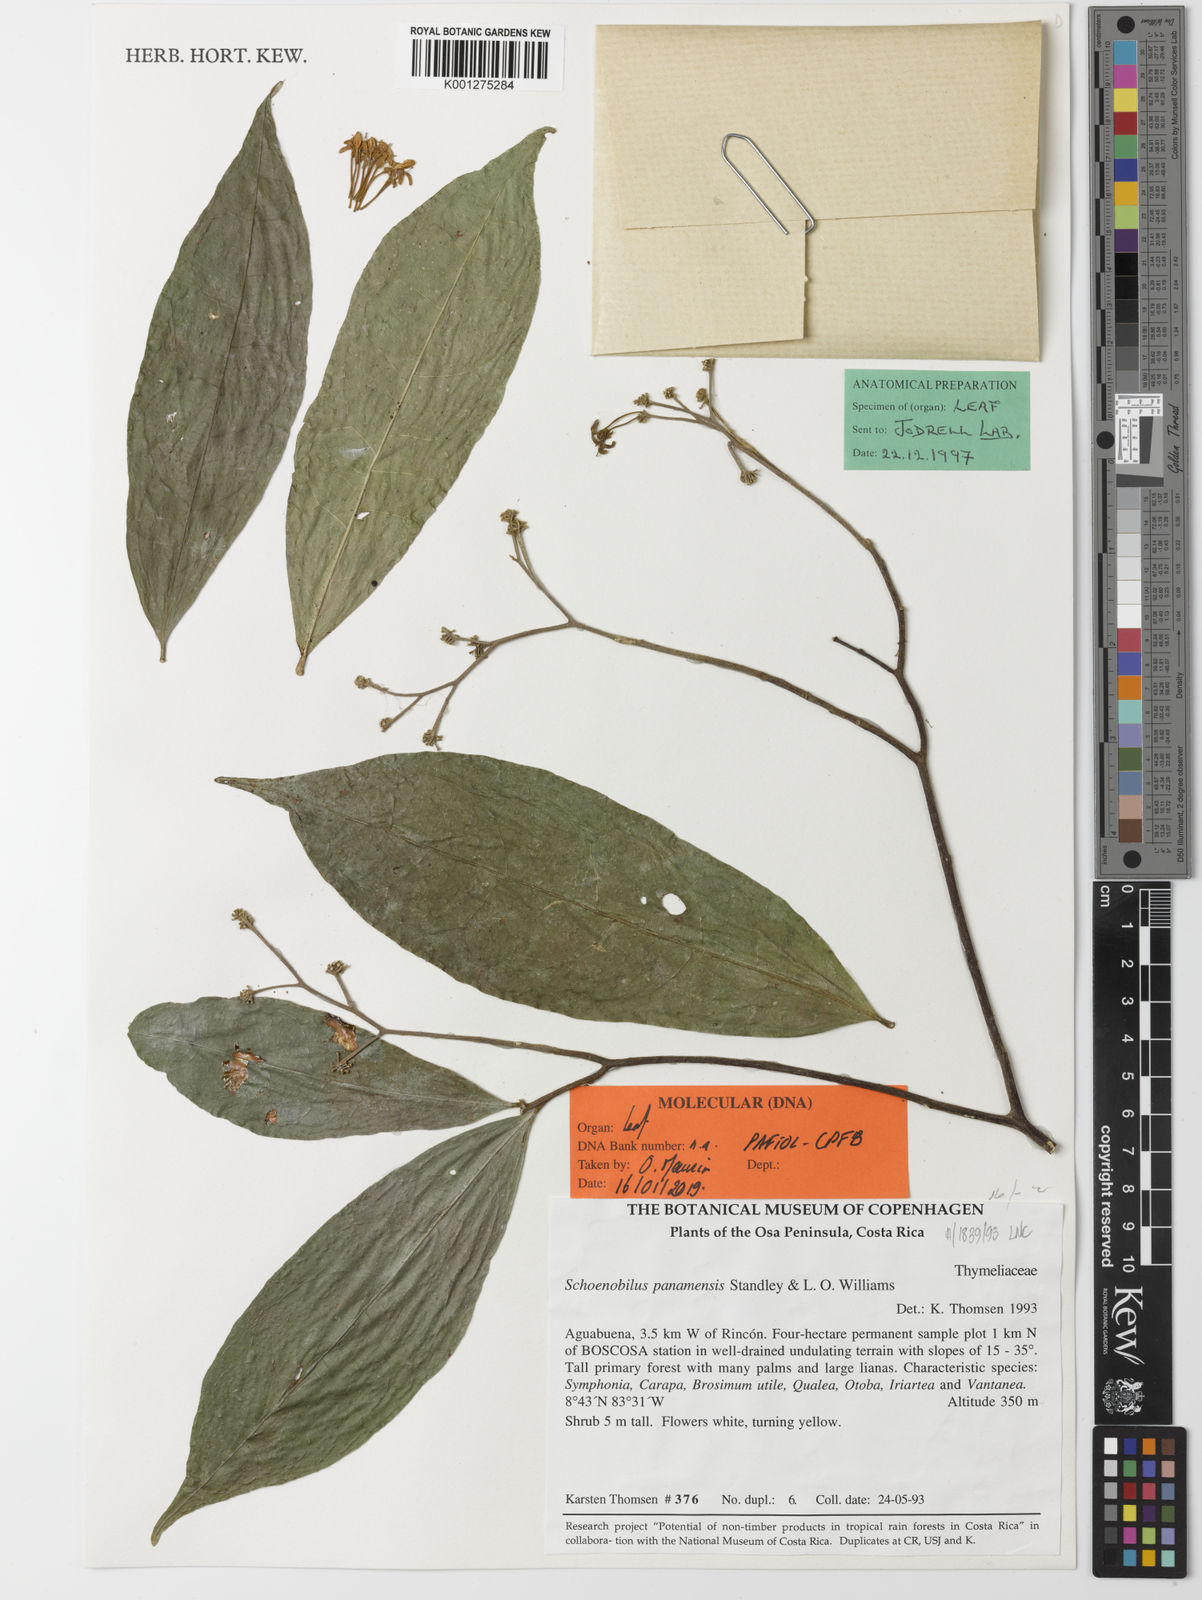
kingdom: Plantae
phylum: Tracheophyta
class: Magnoliopsida
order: Malvales
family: Thymelaeaceae
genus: Schoenobiblus
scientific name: Schoenobiblus panamensis
